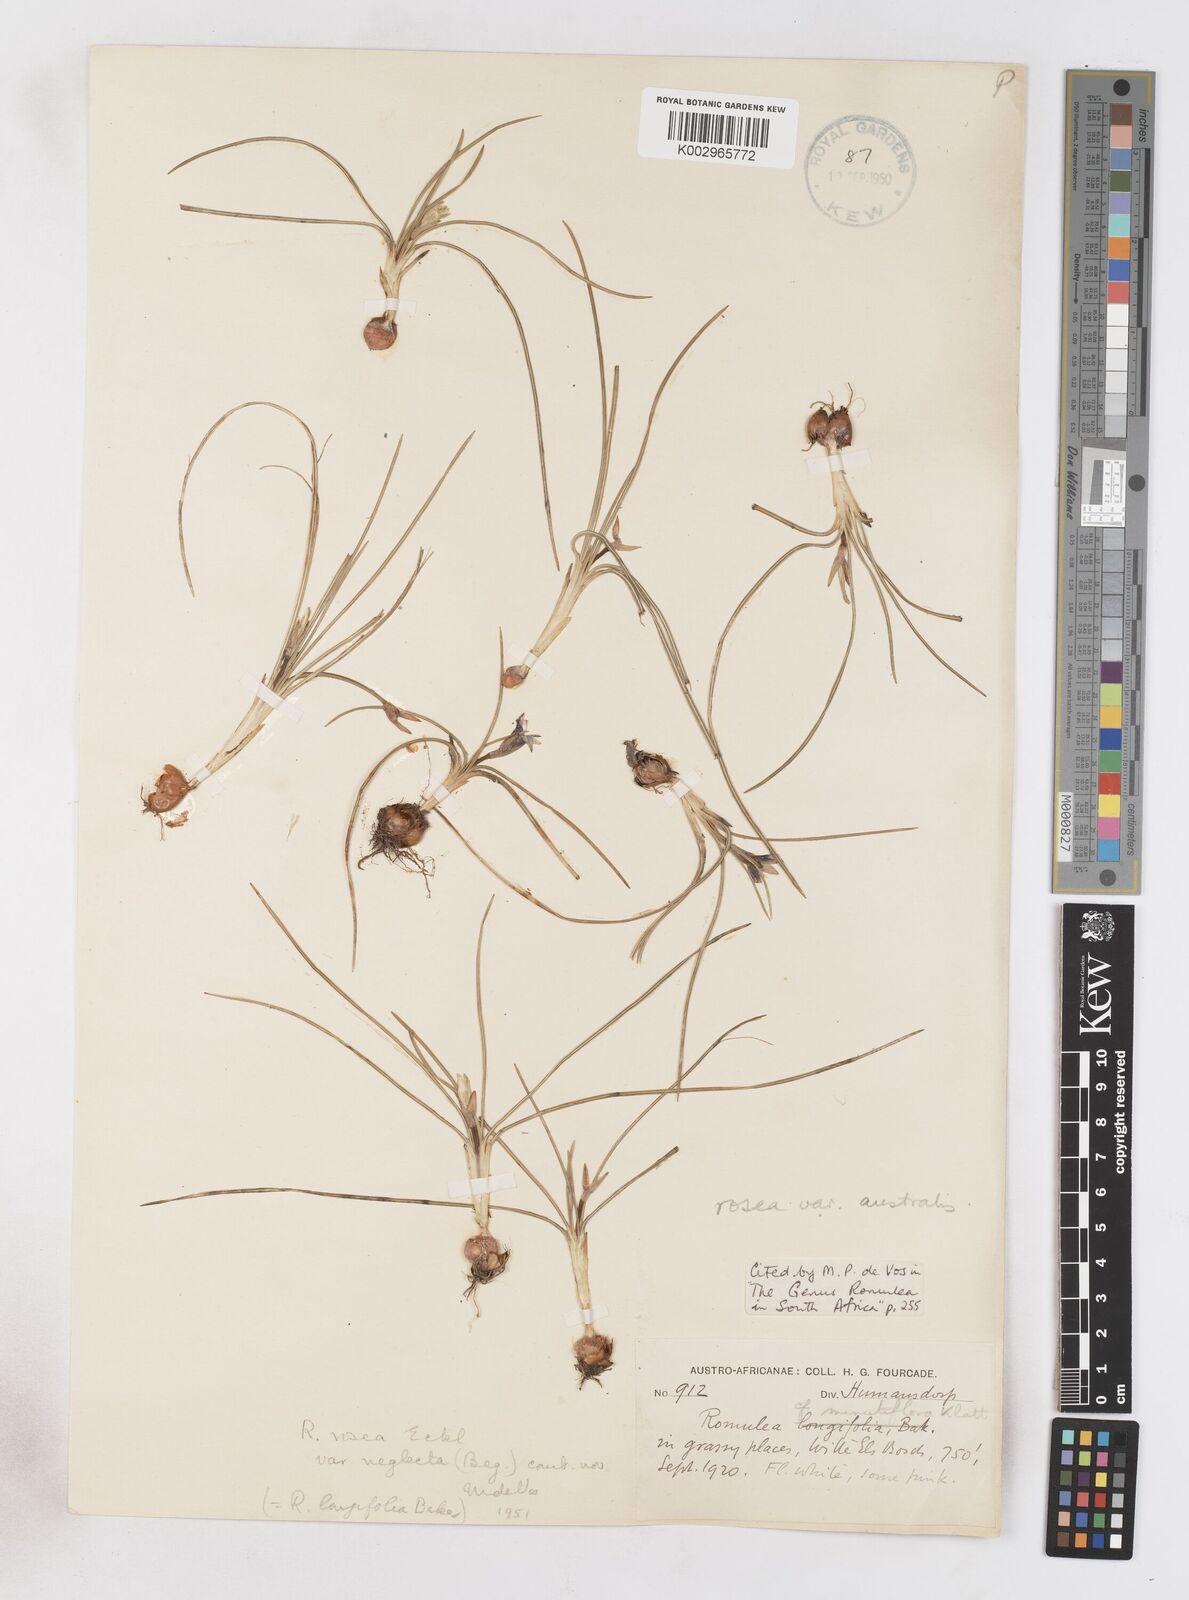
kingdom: Plantae
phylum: Tracheophyta
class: Liliopsida
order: Asparagales
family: Iridaceae
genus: Romulea
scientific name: Romulea rosea
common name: Oniongrass
